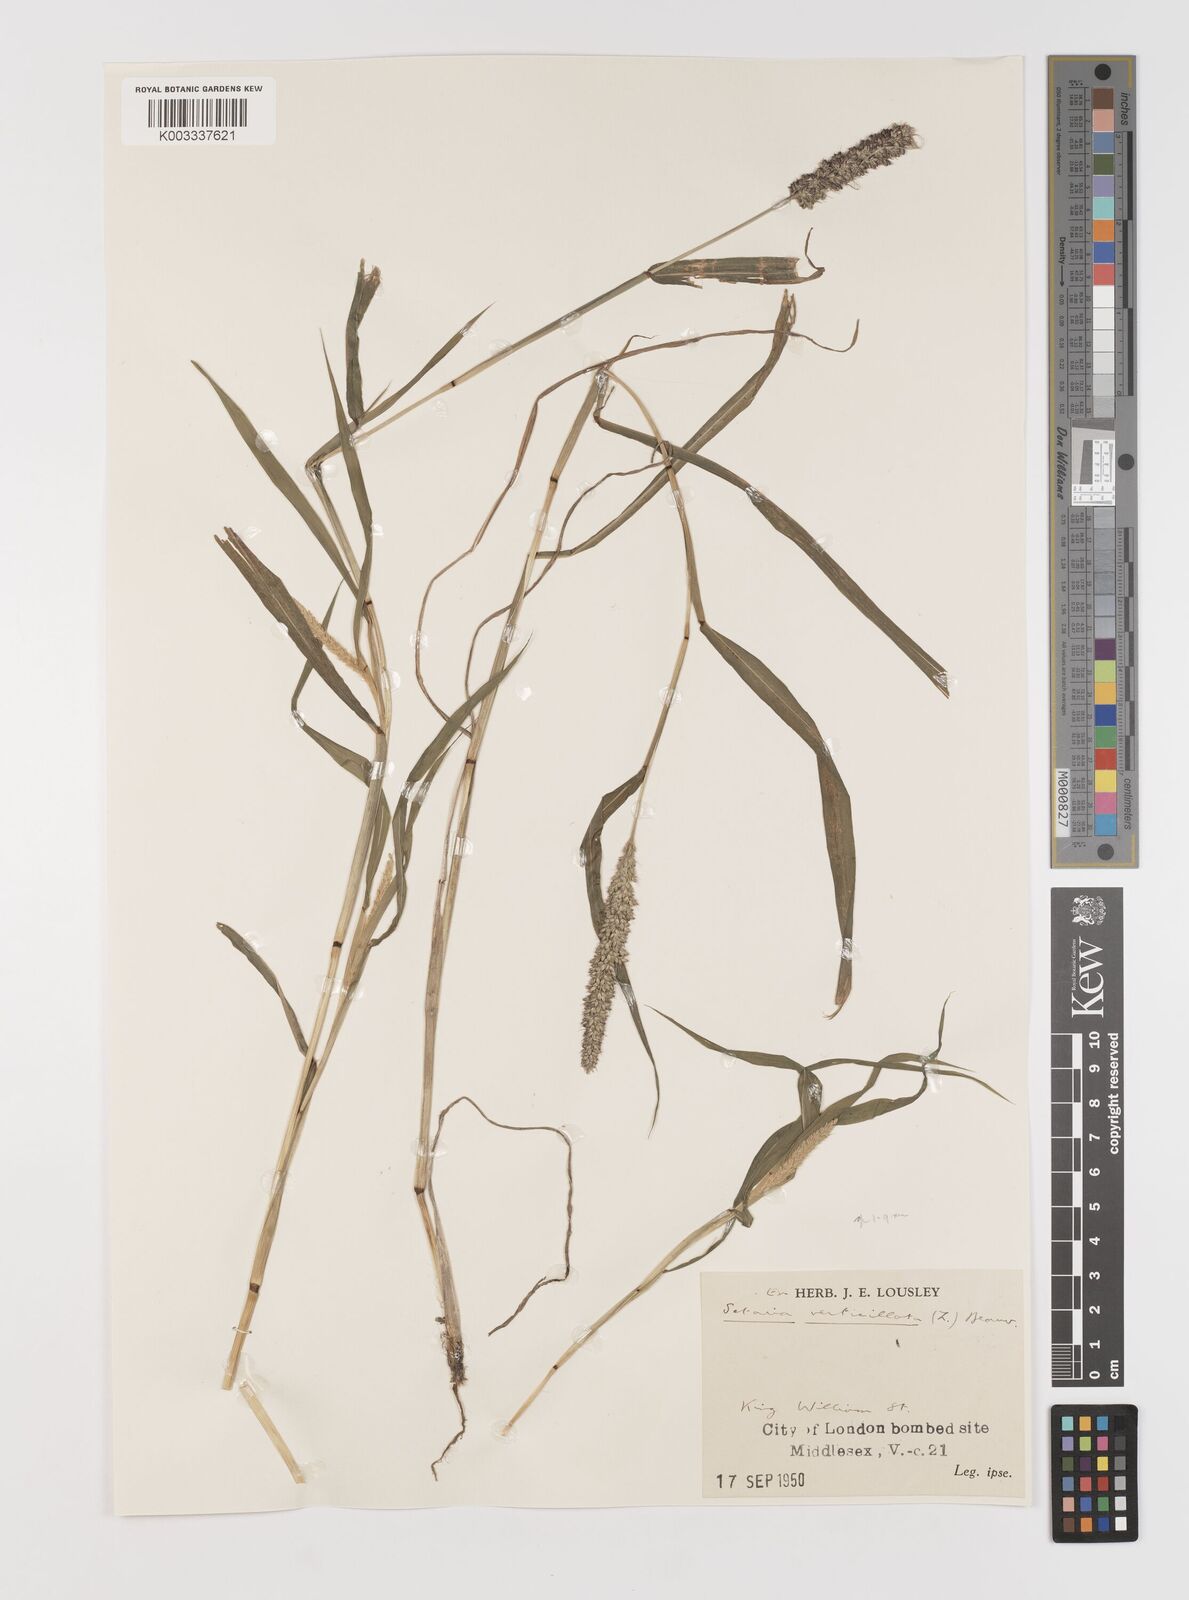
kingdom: Plantae
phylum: Tracheophyta
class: Liliopsida
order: Poales
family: Poaceae
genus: Setaria
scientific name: Setaria
